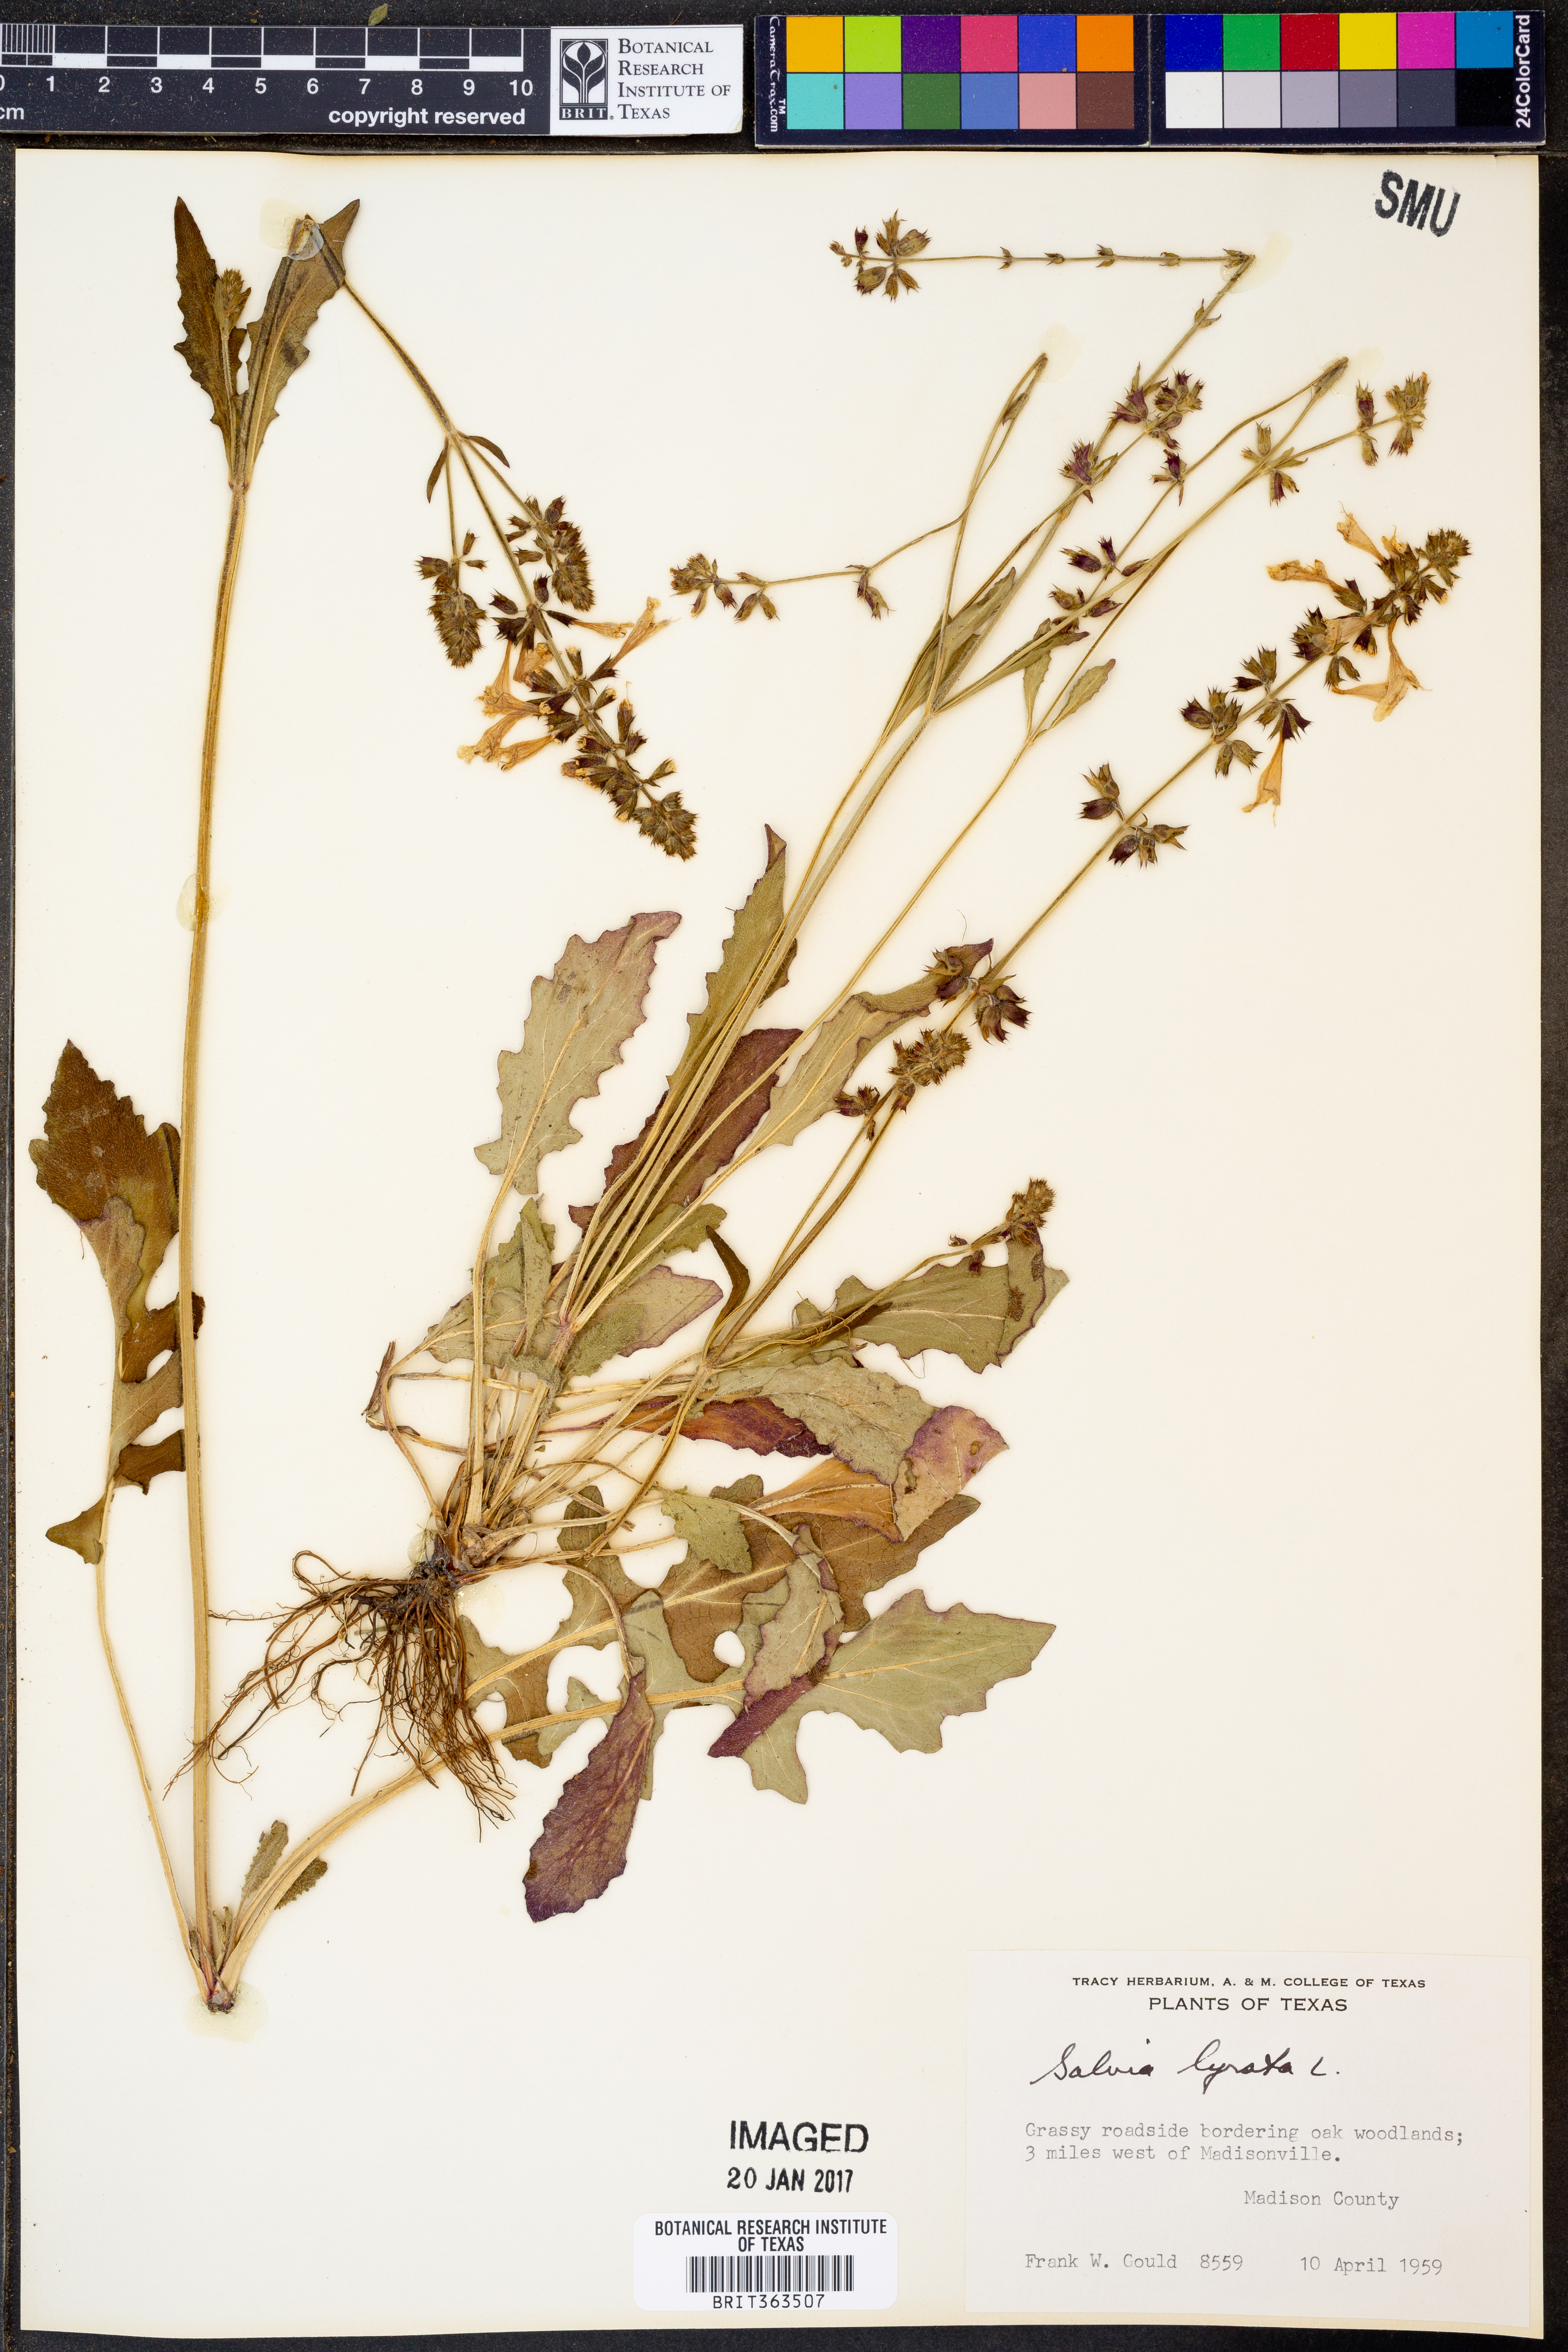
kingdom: Plantae
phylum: Tracheophyta
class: Magnoliopsida
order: Lamiales
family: Lamiaceae
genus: Salvia
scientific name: Salvia lyrata
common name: Cancerweed
